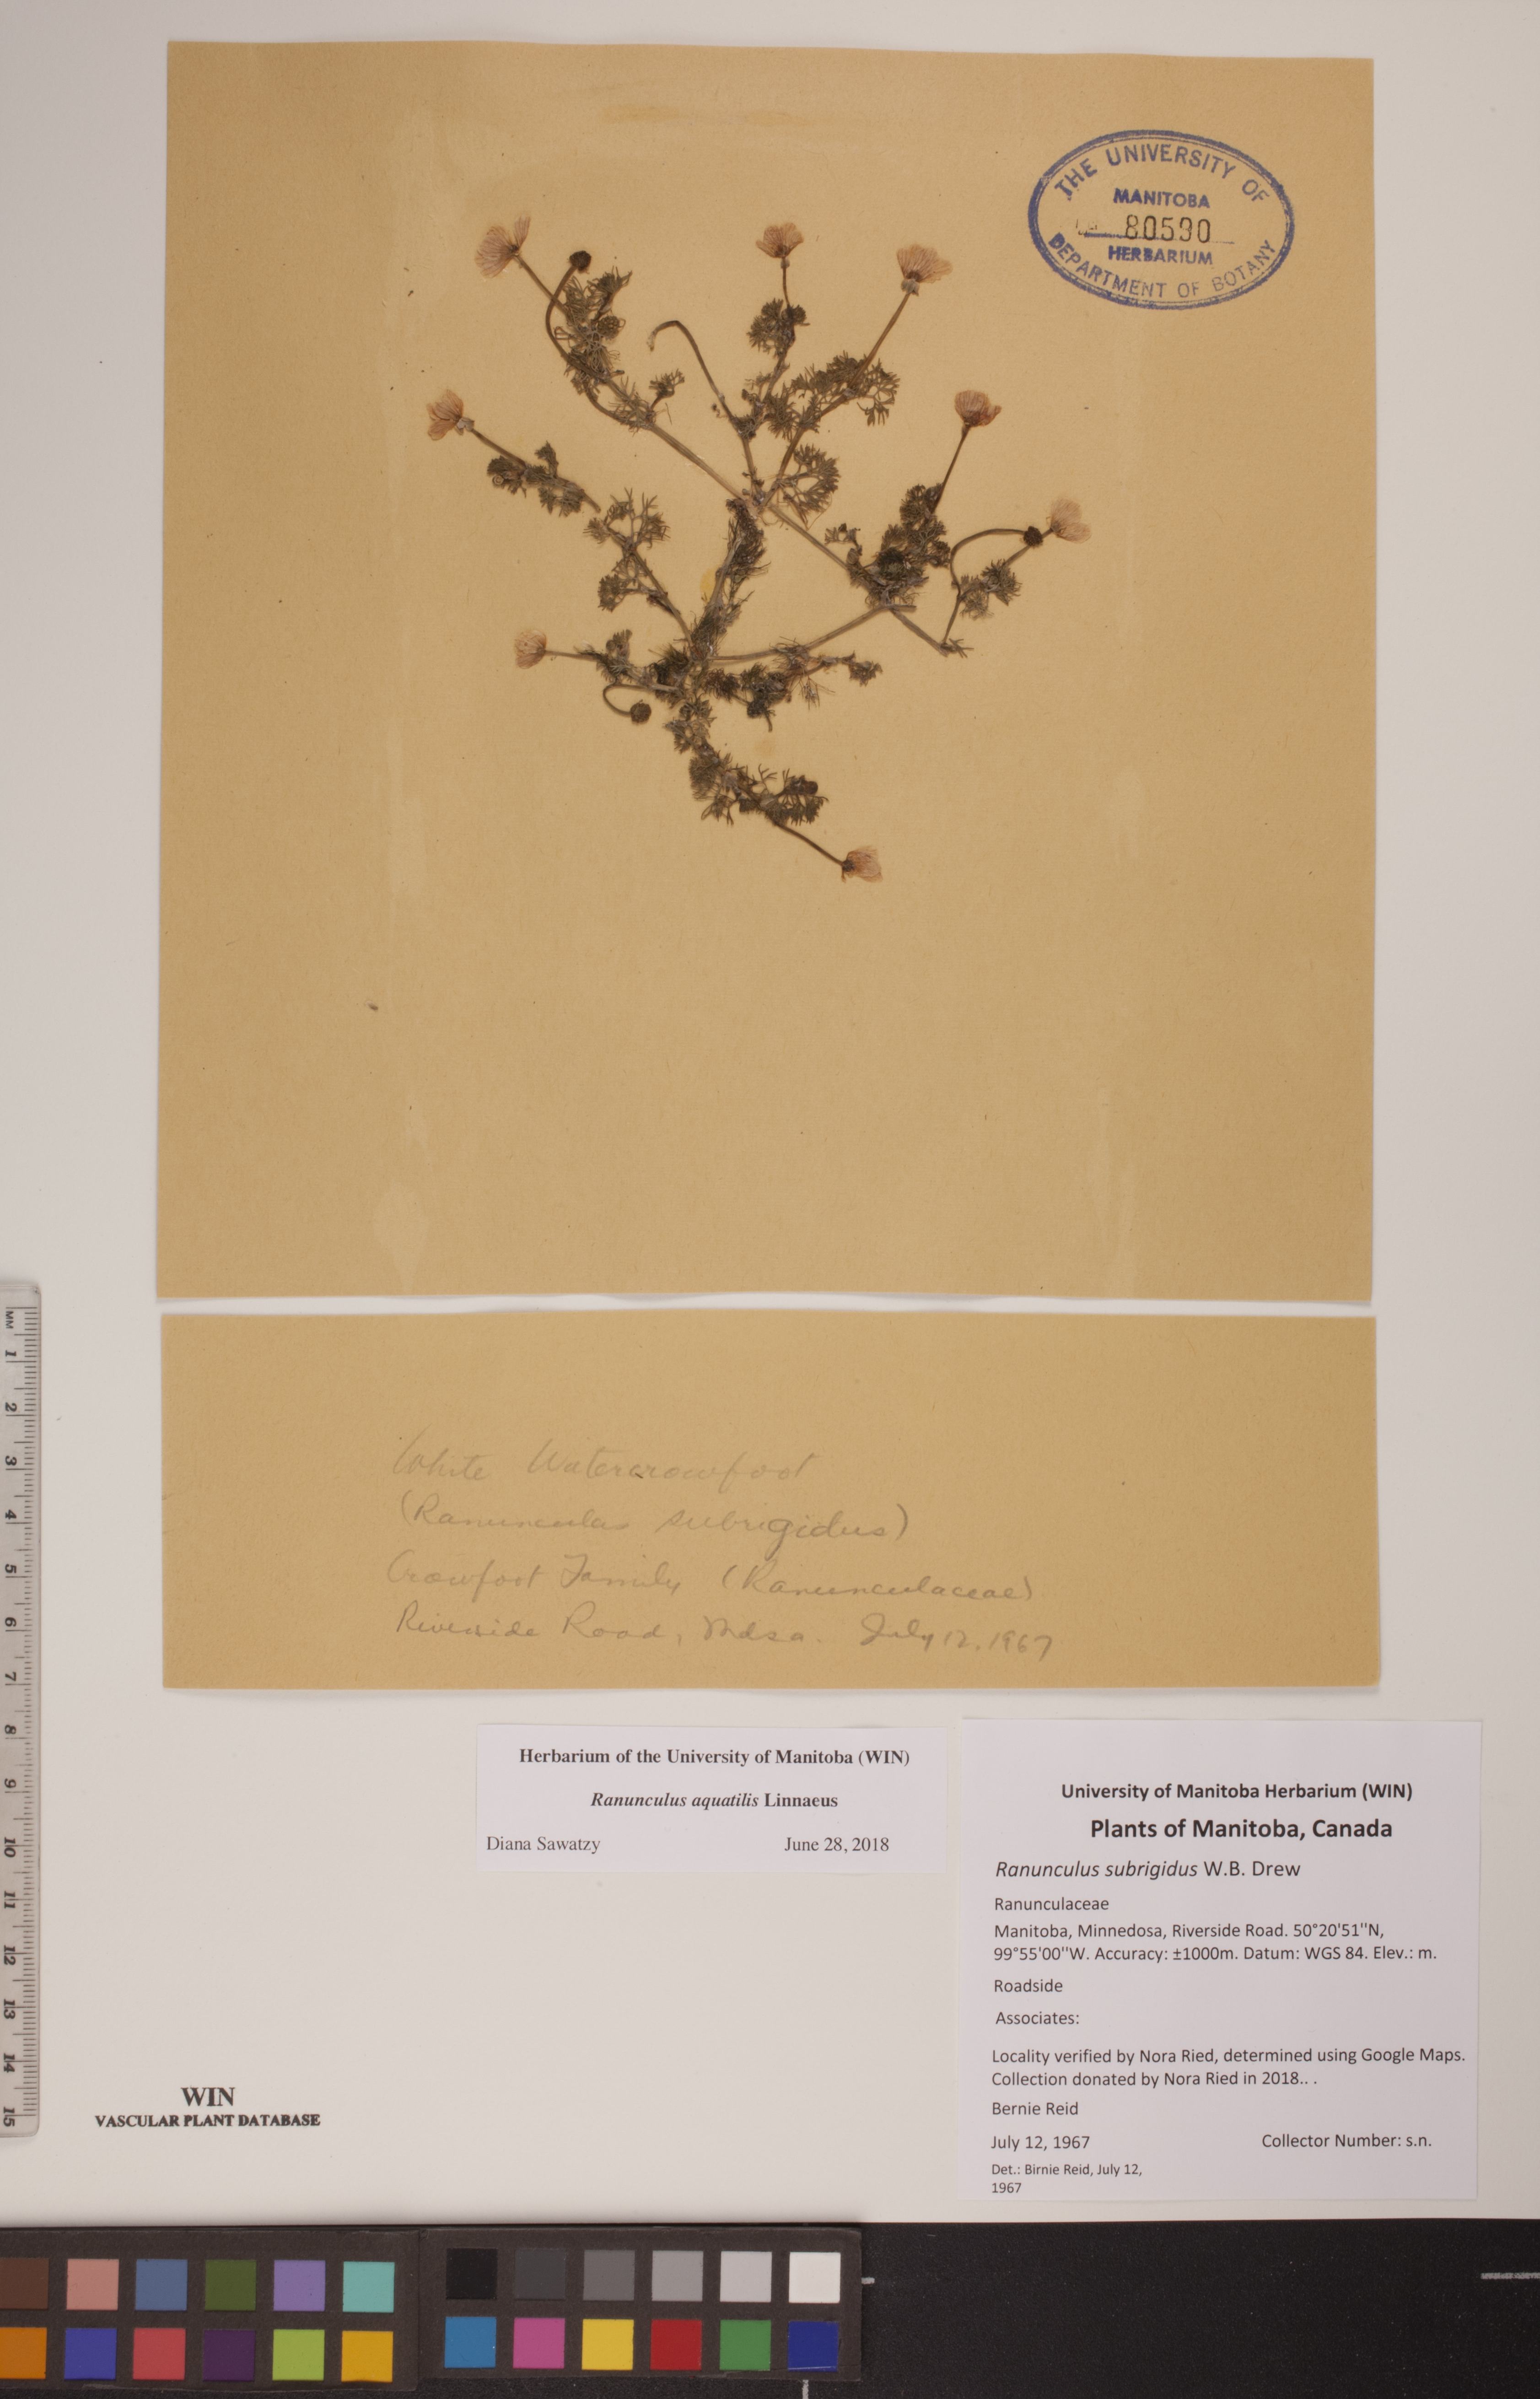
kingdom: Plantae
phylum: Tracheophyta
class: Magnoliopsida
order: Ranunculales
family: Ranunculaceae
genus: Ranunculus
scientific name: Ranunculus aquatilis
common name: Common water-crowfoot
